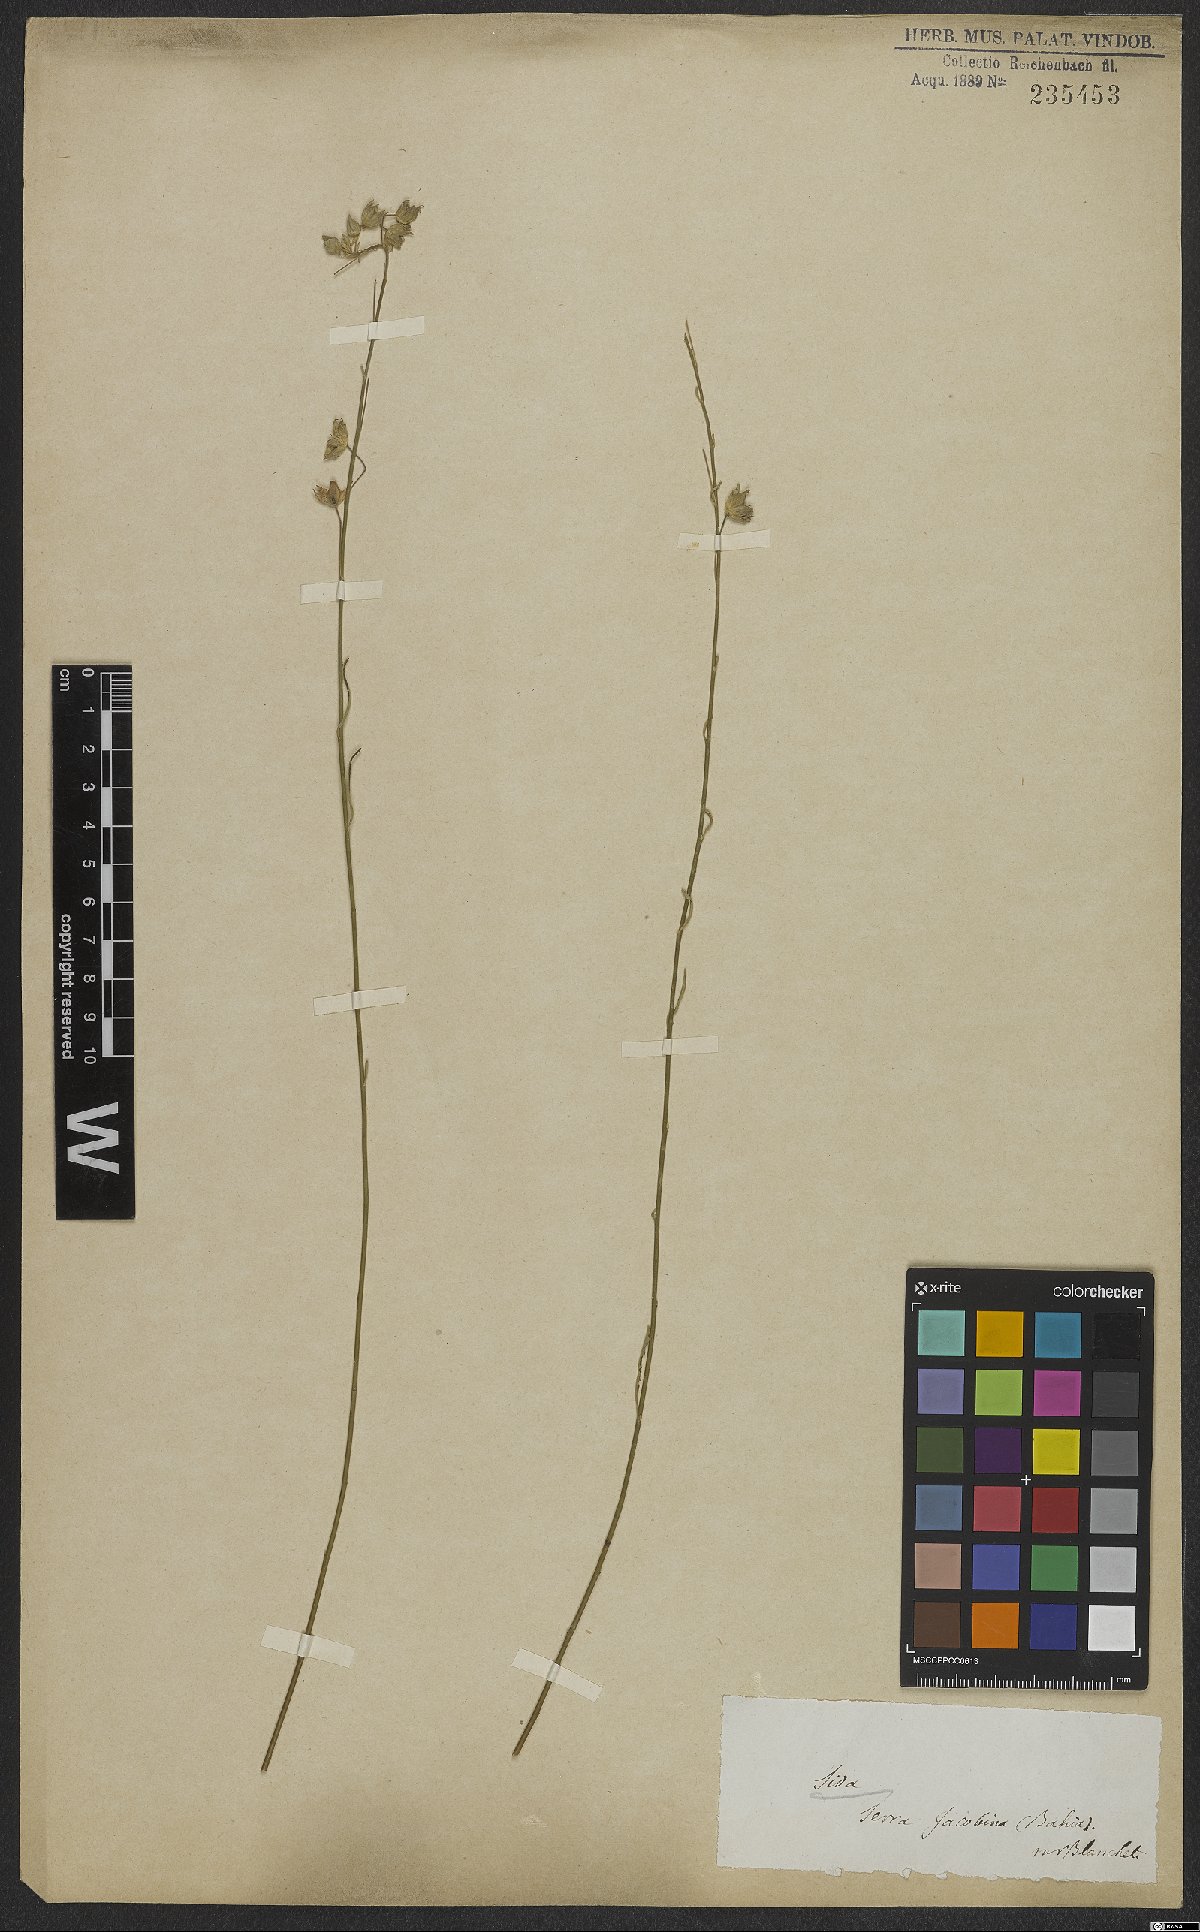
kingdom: Plantae
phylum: Tracheophyta
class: Magnoliopsida
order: Malvales
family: Malvaceae
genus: Sida
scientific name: Sida
